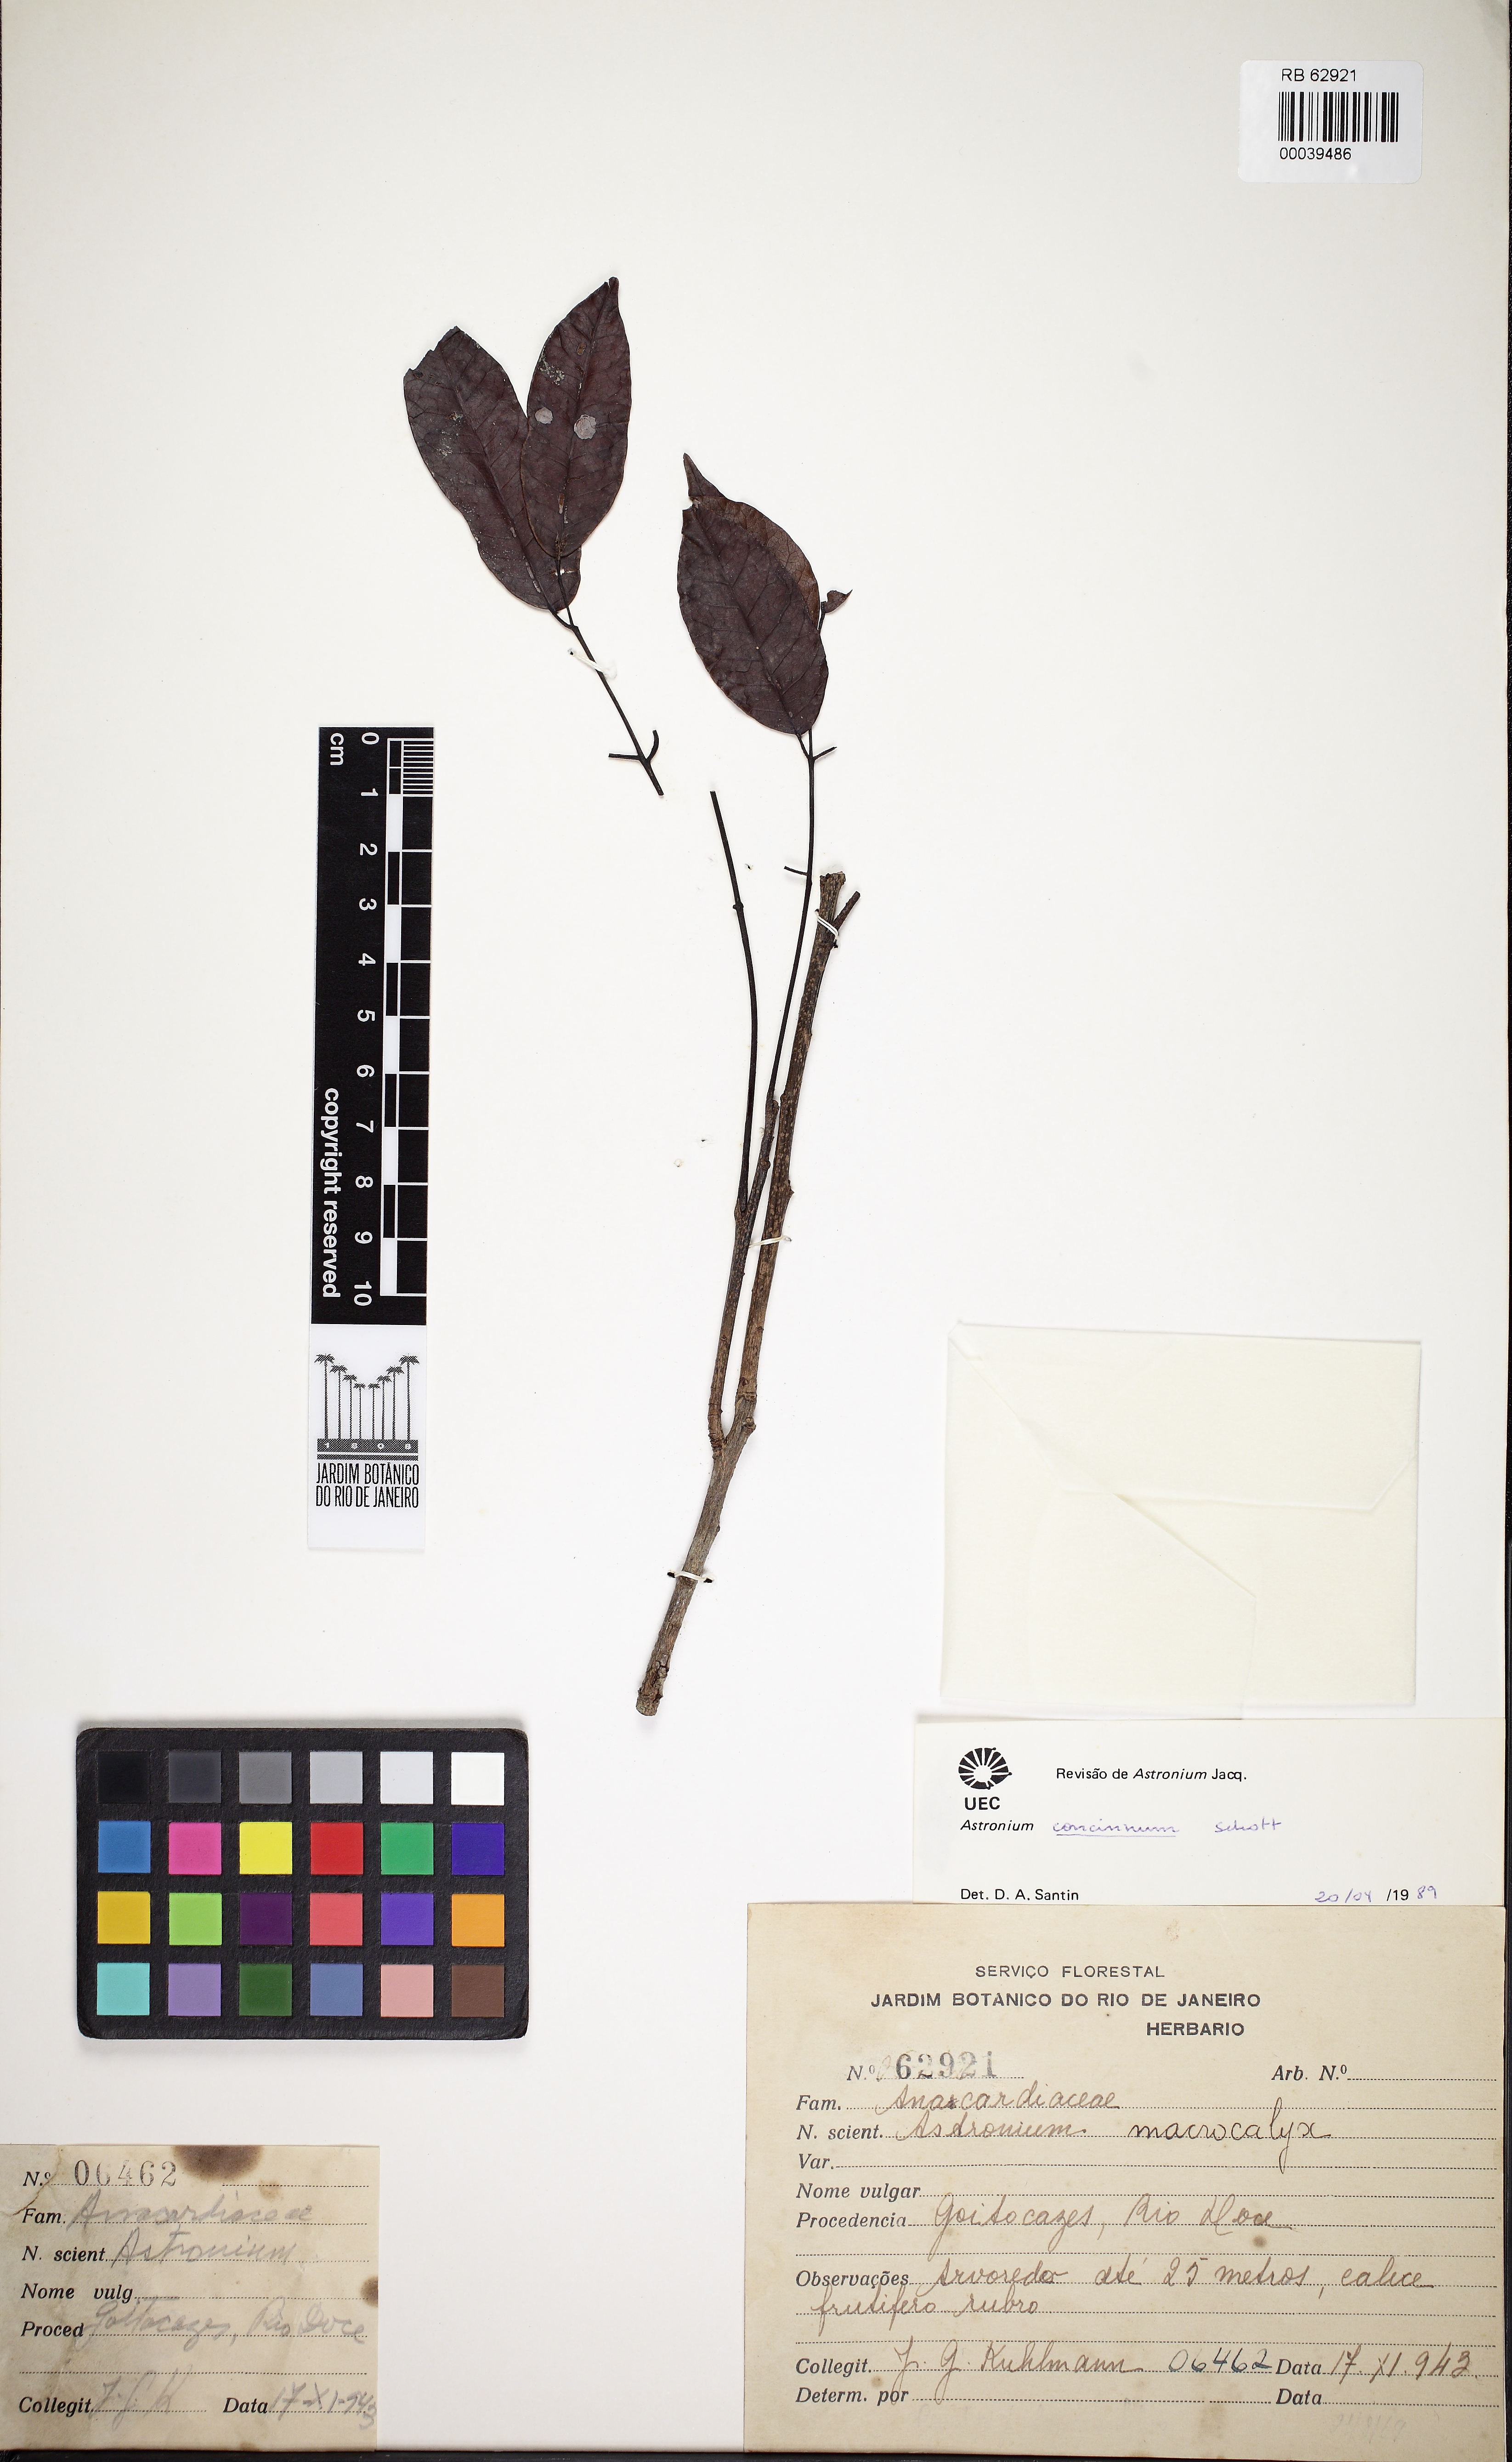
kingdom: Plantae
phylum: Tracheophyta
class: Magnoliopsida
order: Sapindales
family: Anacardiaceae
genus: Astronium
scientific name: Astronium concinnum
